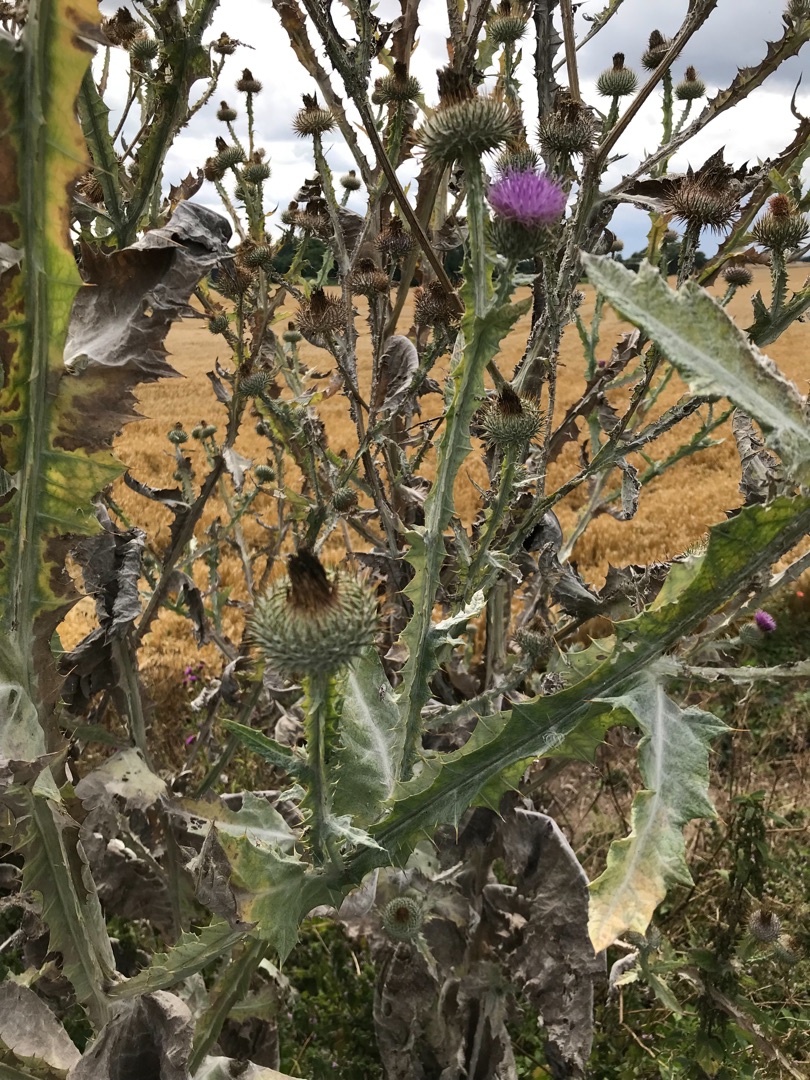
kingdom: Plantae
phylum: Tracheophyta
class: Magnoliopsida
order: Asterales
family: Asteraceae
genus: Onopordum
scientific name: Onopordum acanthium
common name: Æselfoder
